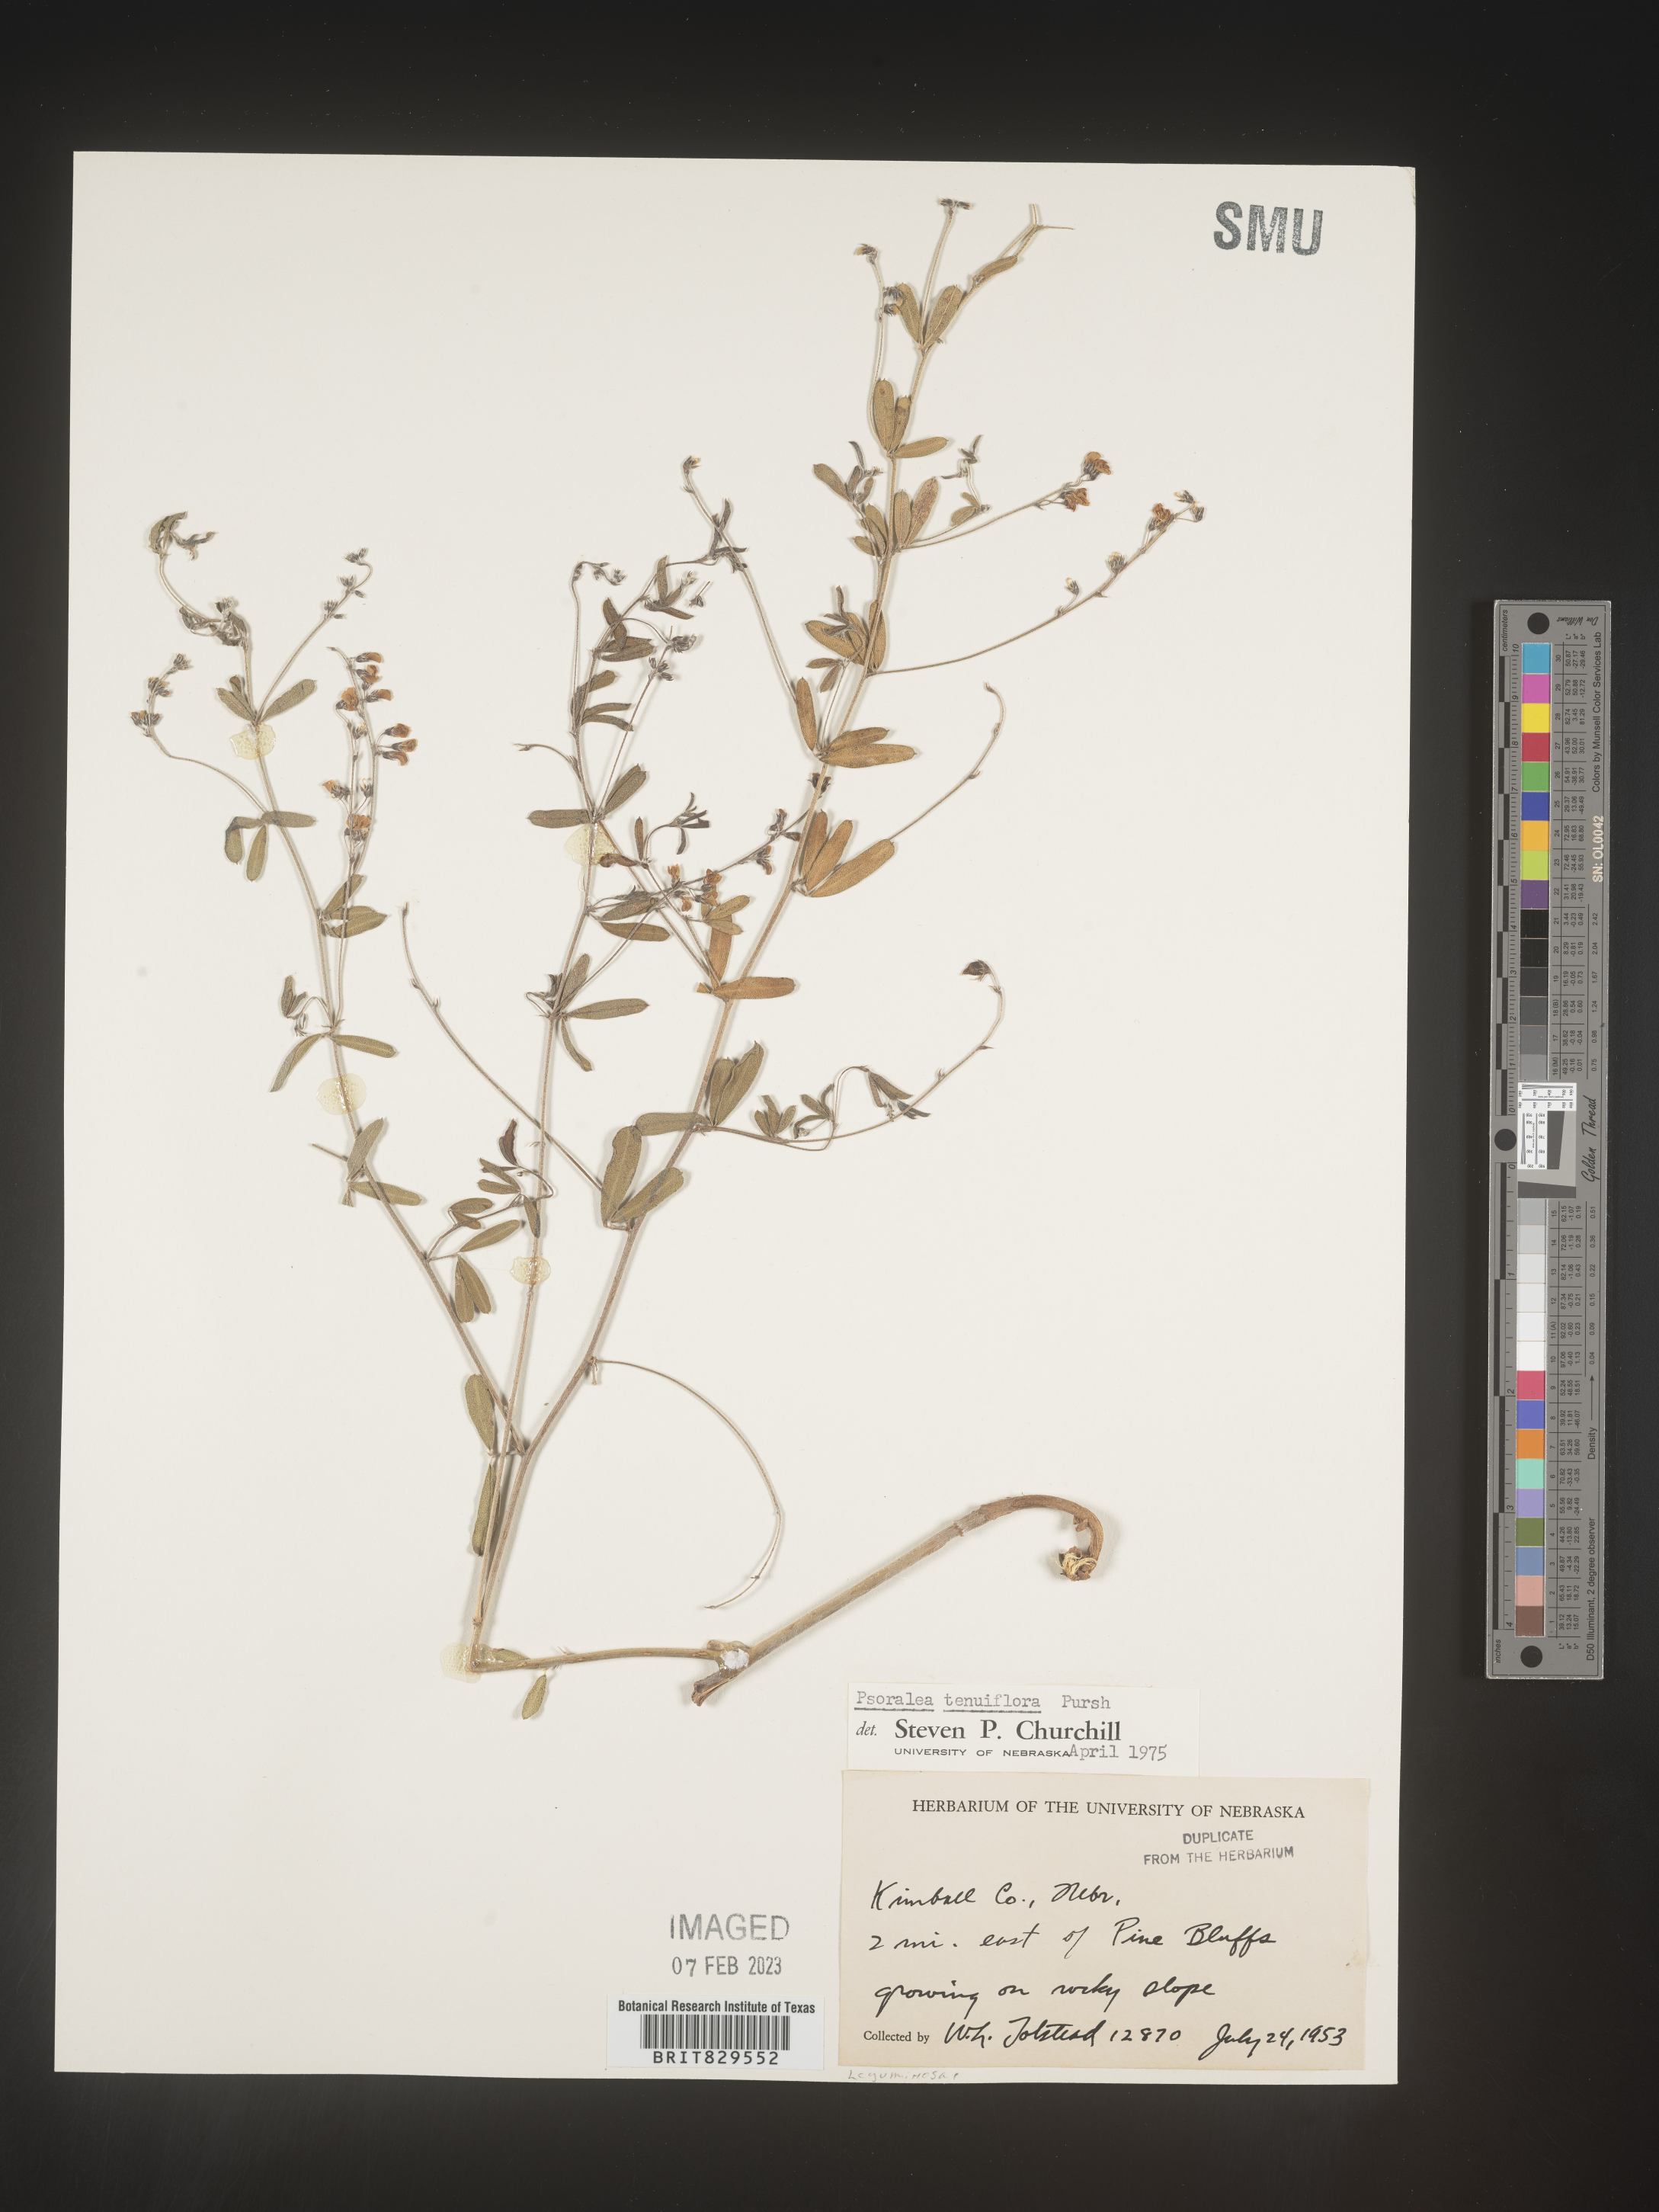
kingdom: Plantae
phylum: Tracheophyta
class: Magnoliopsida
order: Fabales
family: Fabaceae
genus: Pediomelum
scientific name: Pediomelum tenuiflorum
